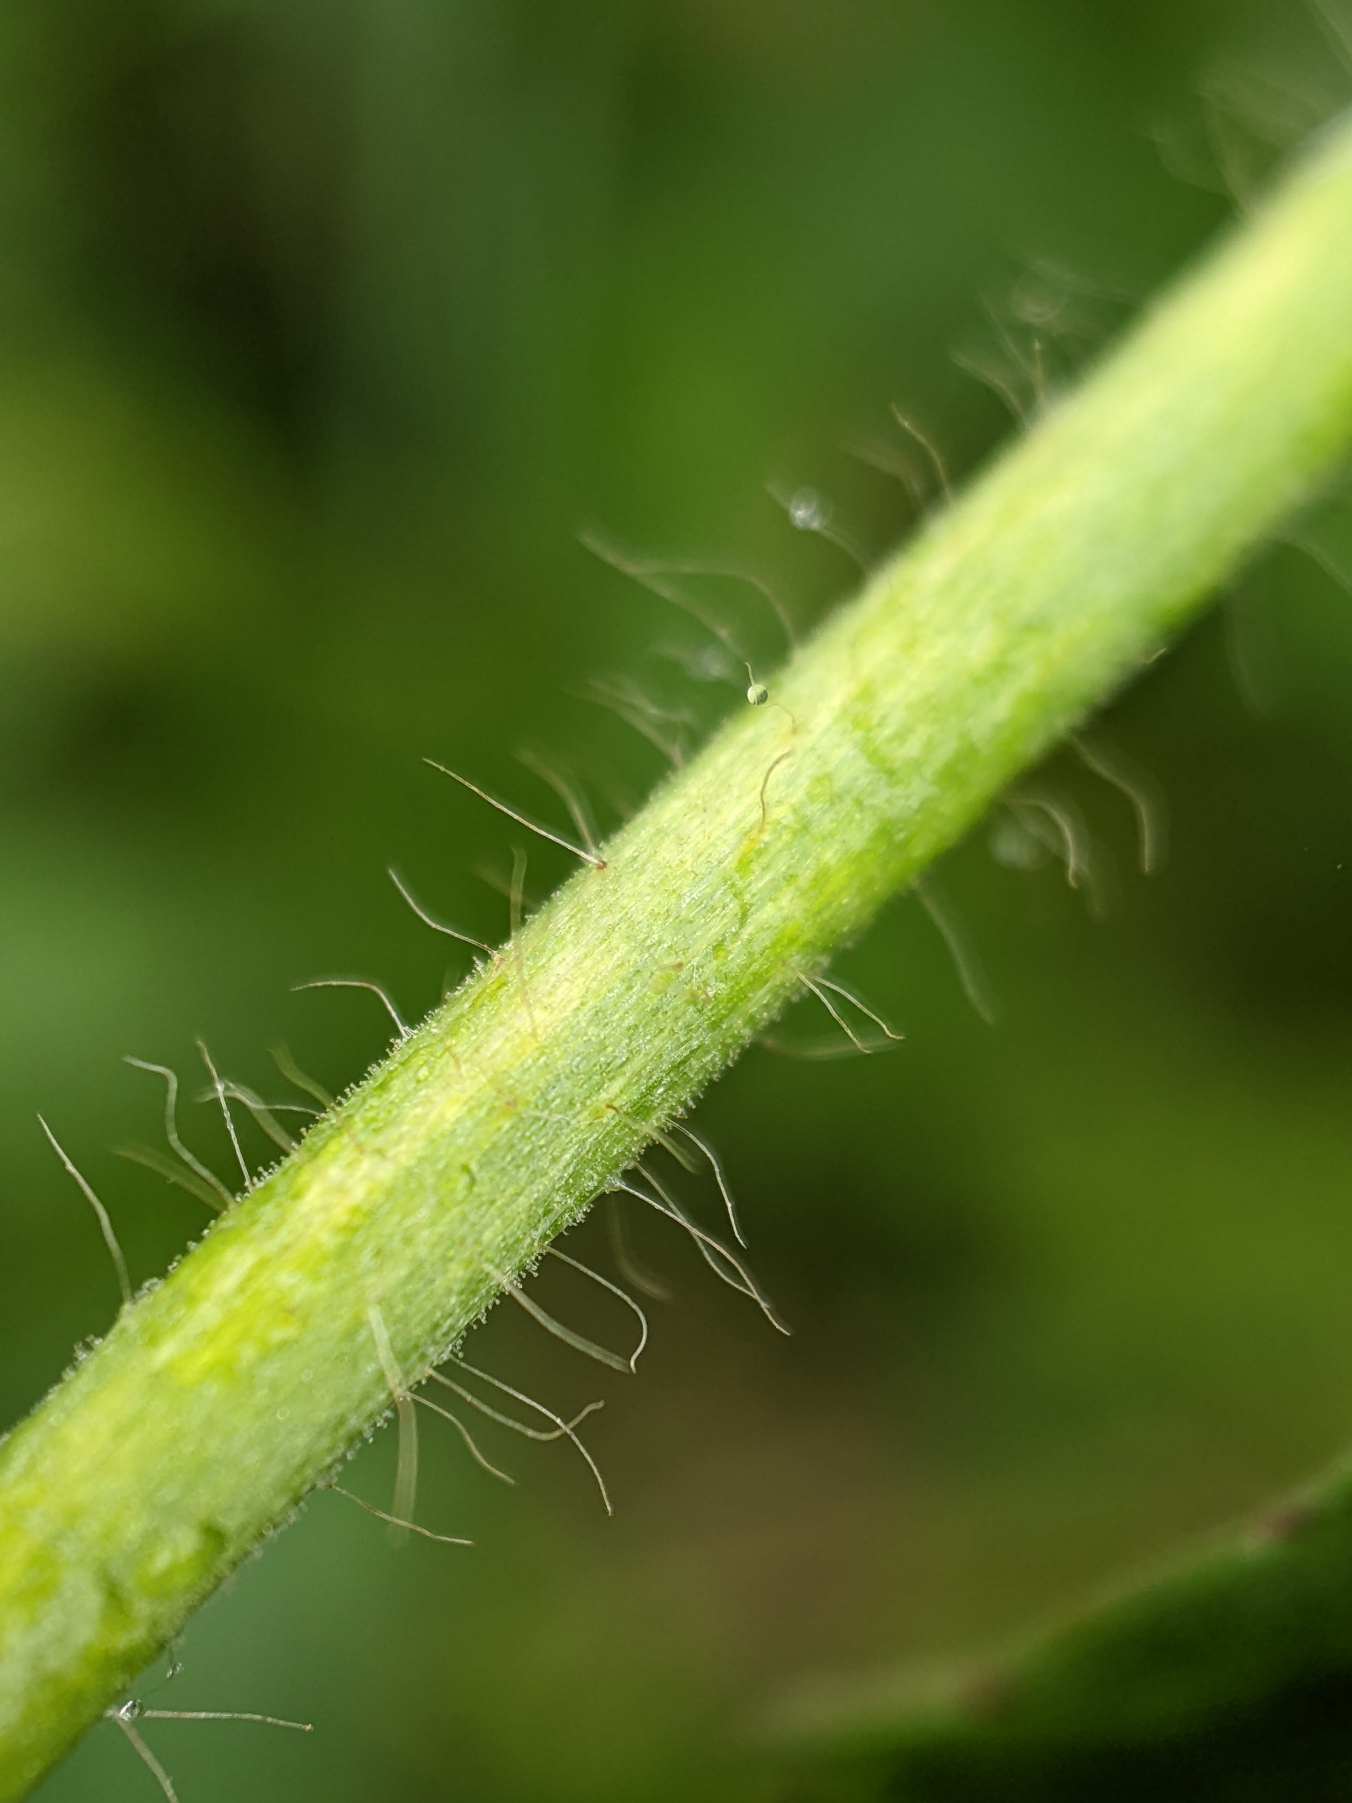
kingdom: Plantae
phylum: Tracheophyta
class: Magnoliopsida
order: Rosales
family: Rosaceae
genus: Agrimonia
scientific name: Agrimonia procera
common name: Vellugtende agermåne
